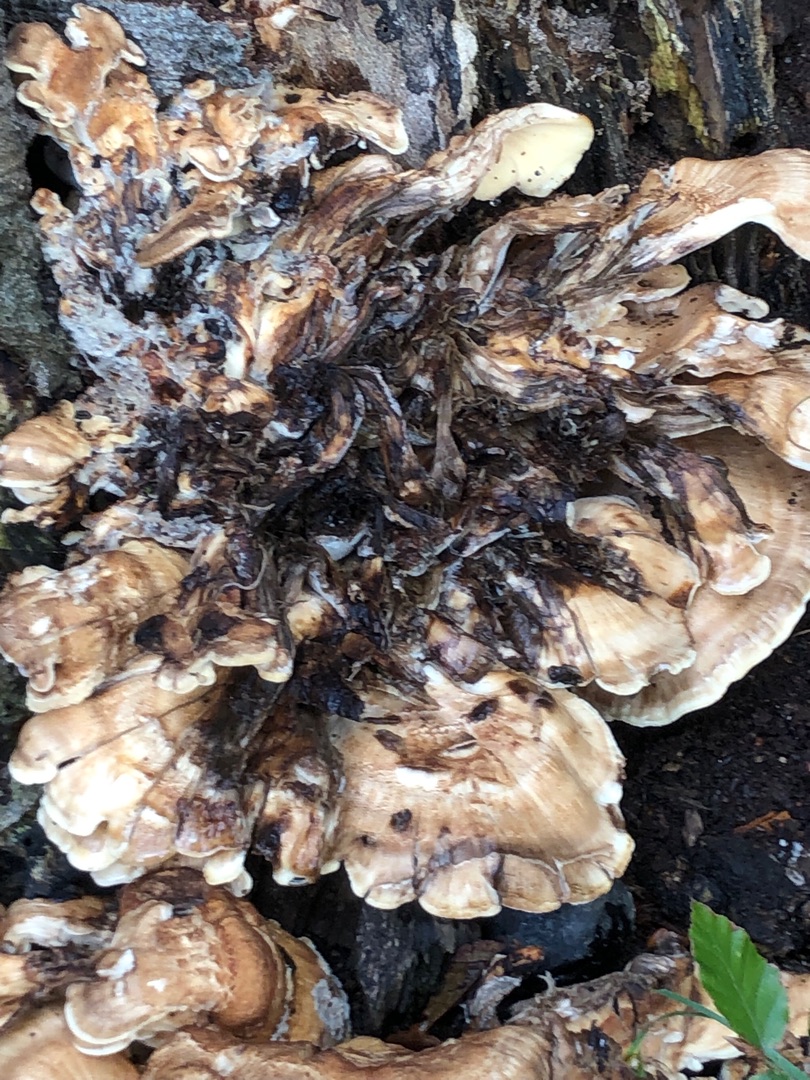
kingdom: Fungi
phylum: Basidiomycota
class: Agaricomycetes
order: Polyporales
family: Meripilaceae
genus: Meripilus
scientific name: Meripilus giganteus
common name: Kæmpeporesvamp
